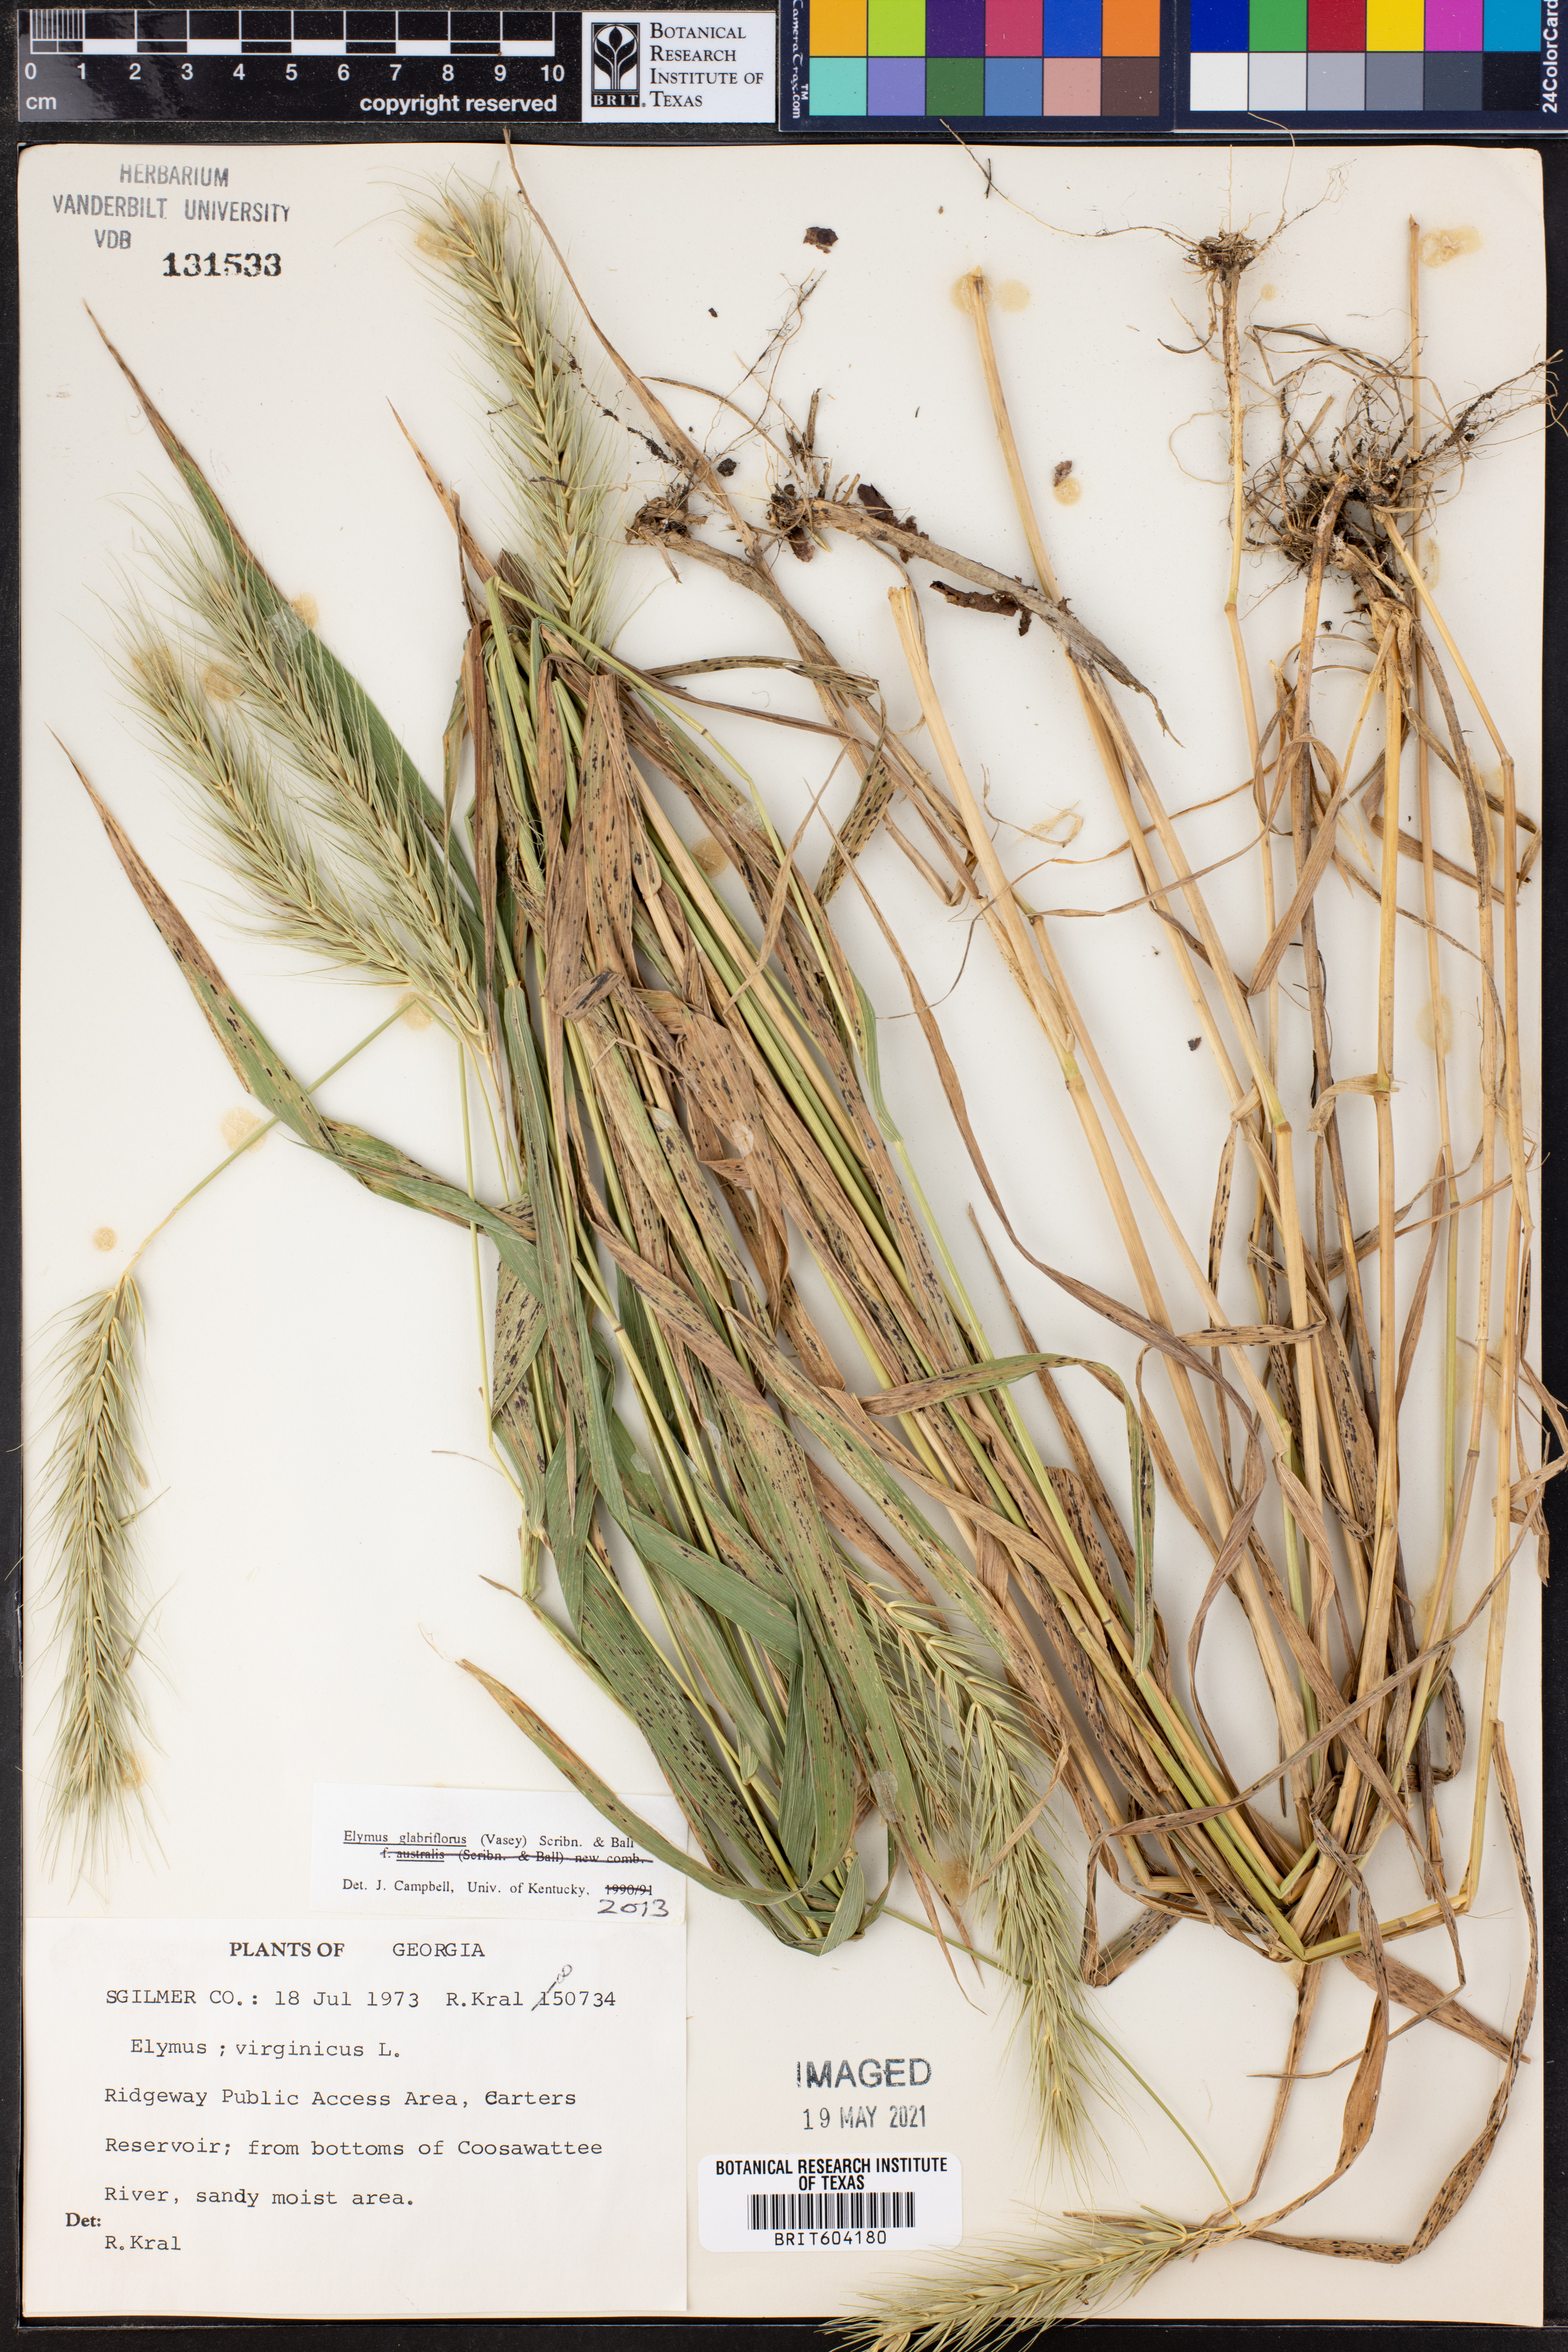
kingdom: Plantae
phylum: Tracheophyta
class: Liliopsida
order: Poales
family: Poaceae
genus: Elymus
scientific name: Elymus virginicus
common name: Common eastern wildrye
